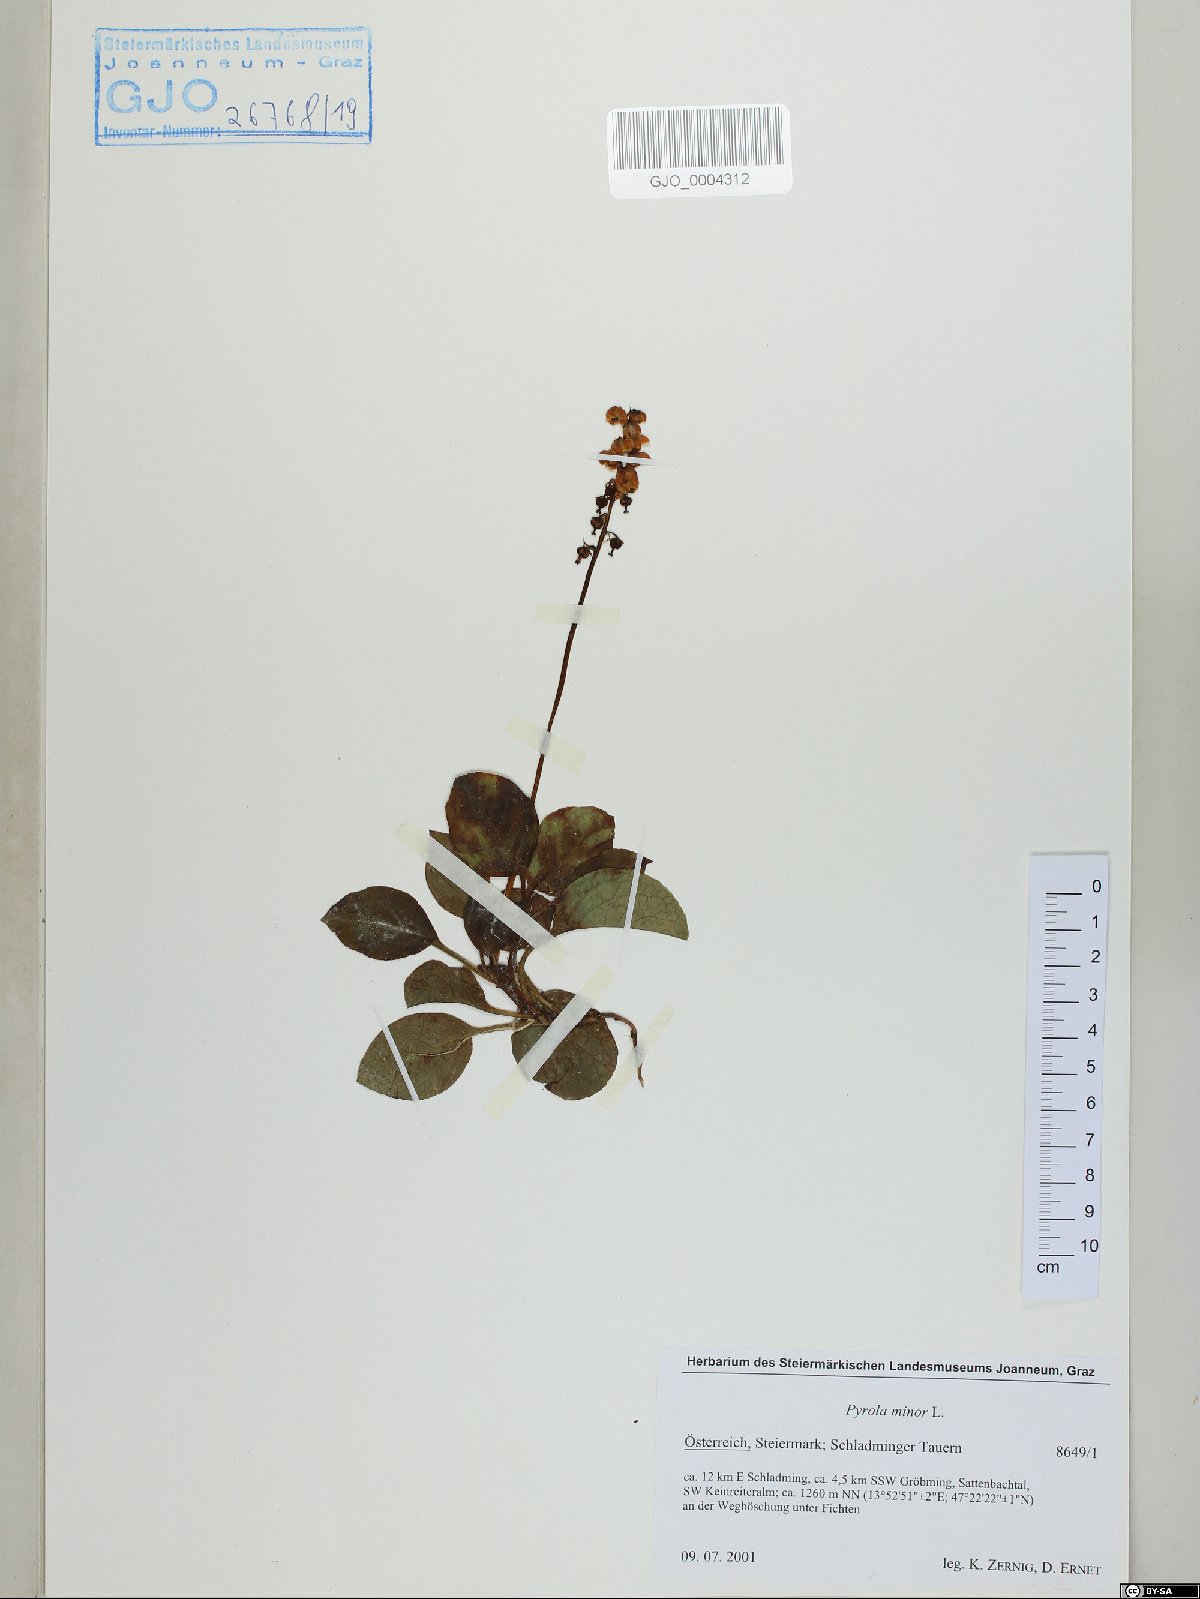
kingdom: Plantae
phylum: Tracheophyta
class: Magnoliopsida
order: Ericales
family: Ericaceae
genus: Pyrola
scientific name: Pyrola minor
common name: Common wintergreen
